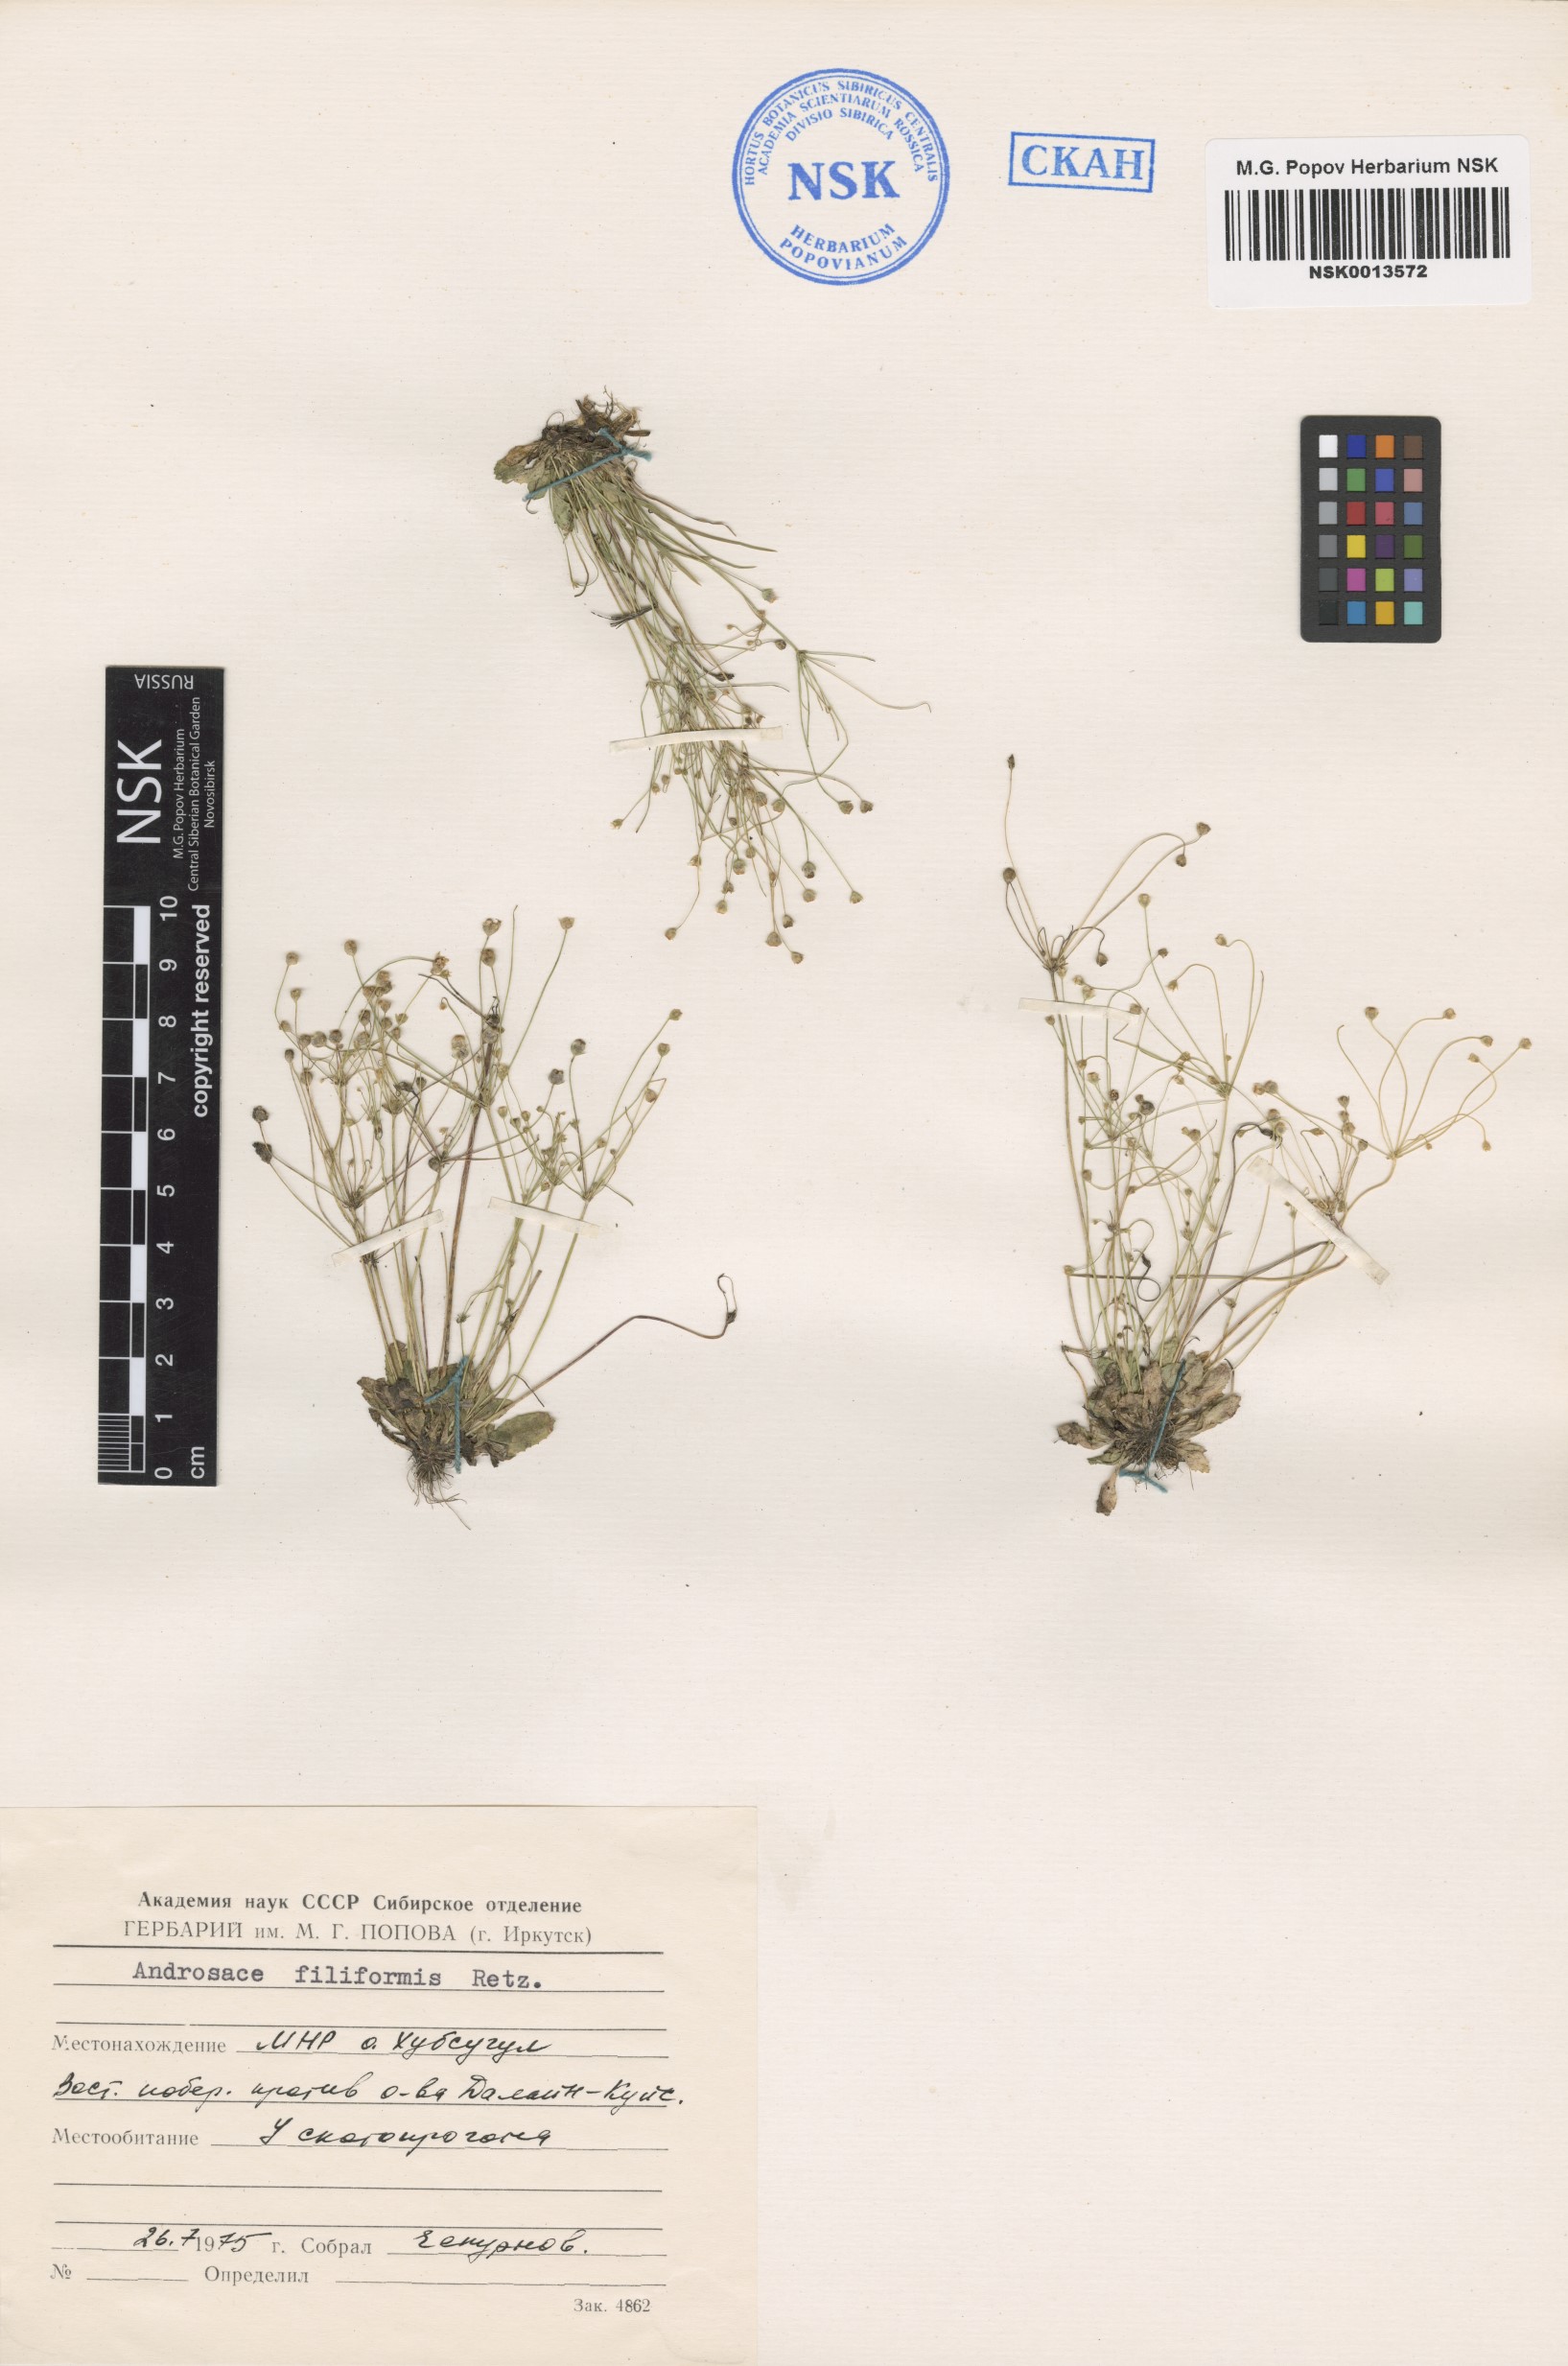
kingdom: Plantae
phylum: Tracheophyta
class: Magnoliopsida
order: Ericales
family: Primulaceae
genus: Androsace
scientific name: Androsace filiformis
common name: Filiform rock jasmine
